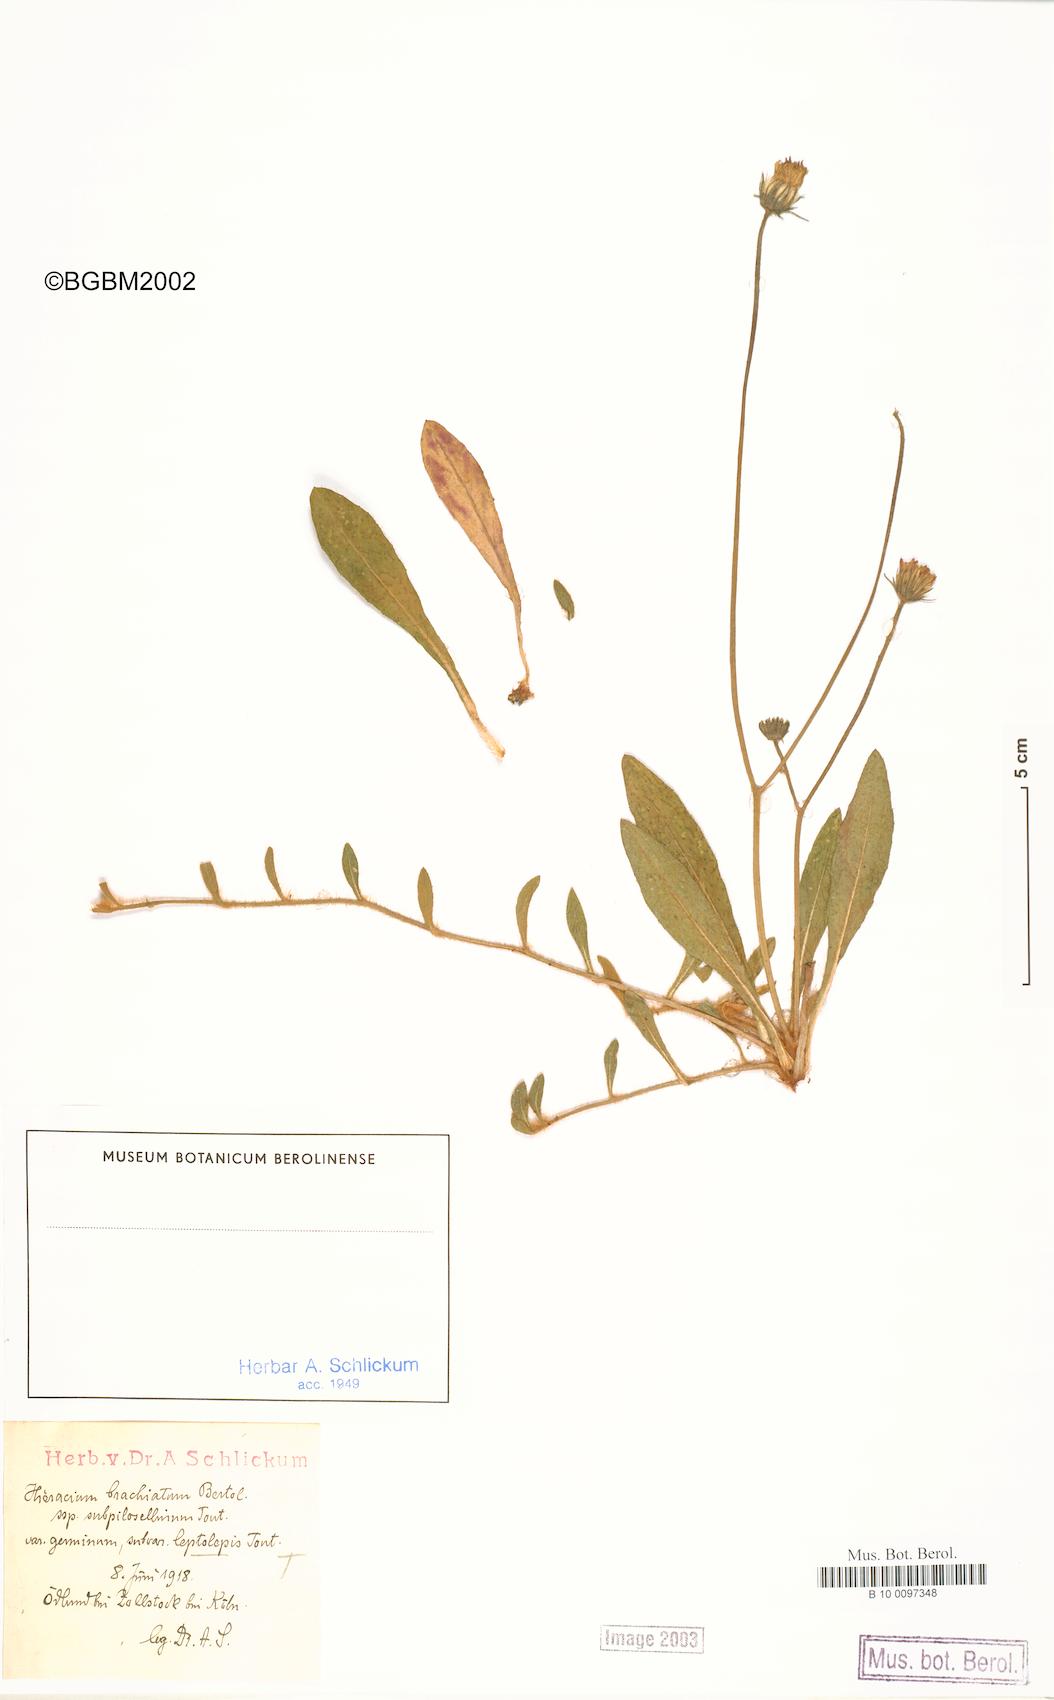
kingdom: Plantae
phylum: Tracheophyta
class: Magnoliopsida
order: Asterales
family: Asteraceae
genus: Pilosella
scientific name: Pilosella acutifolia
